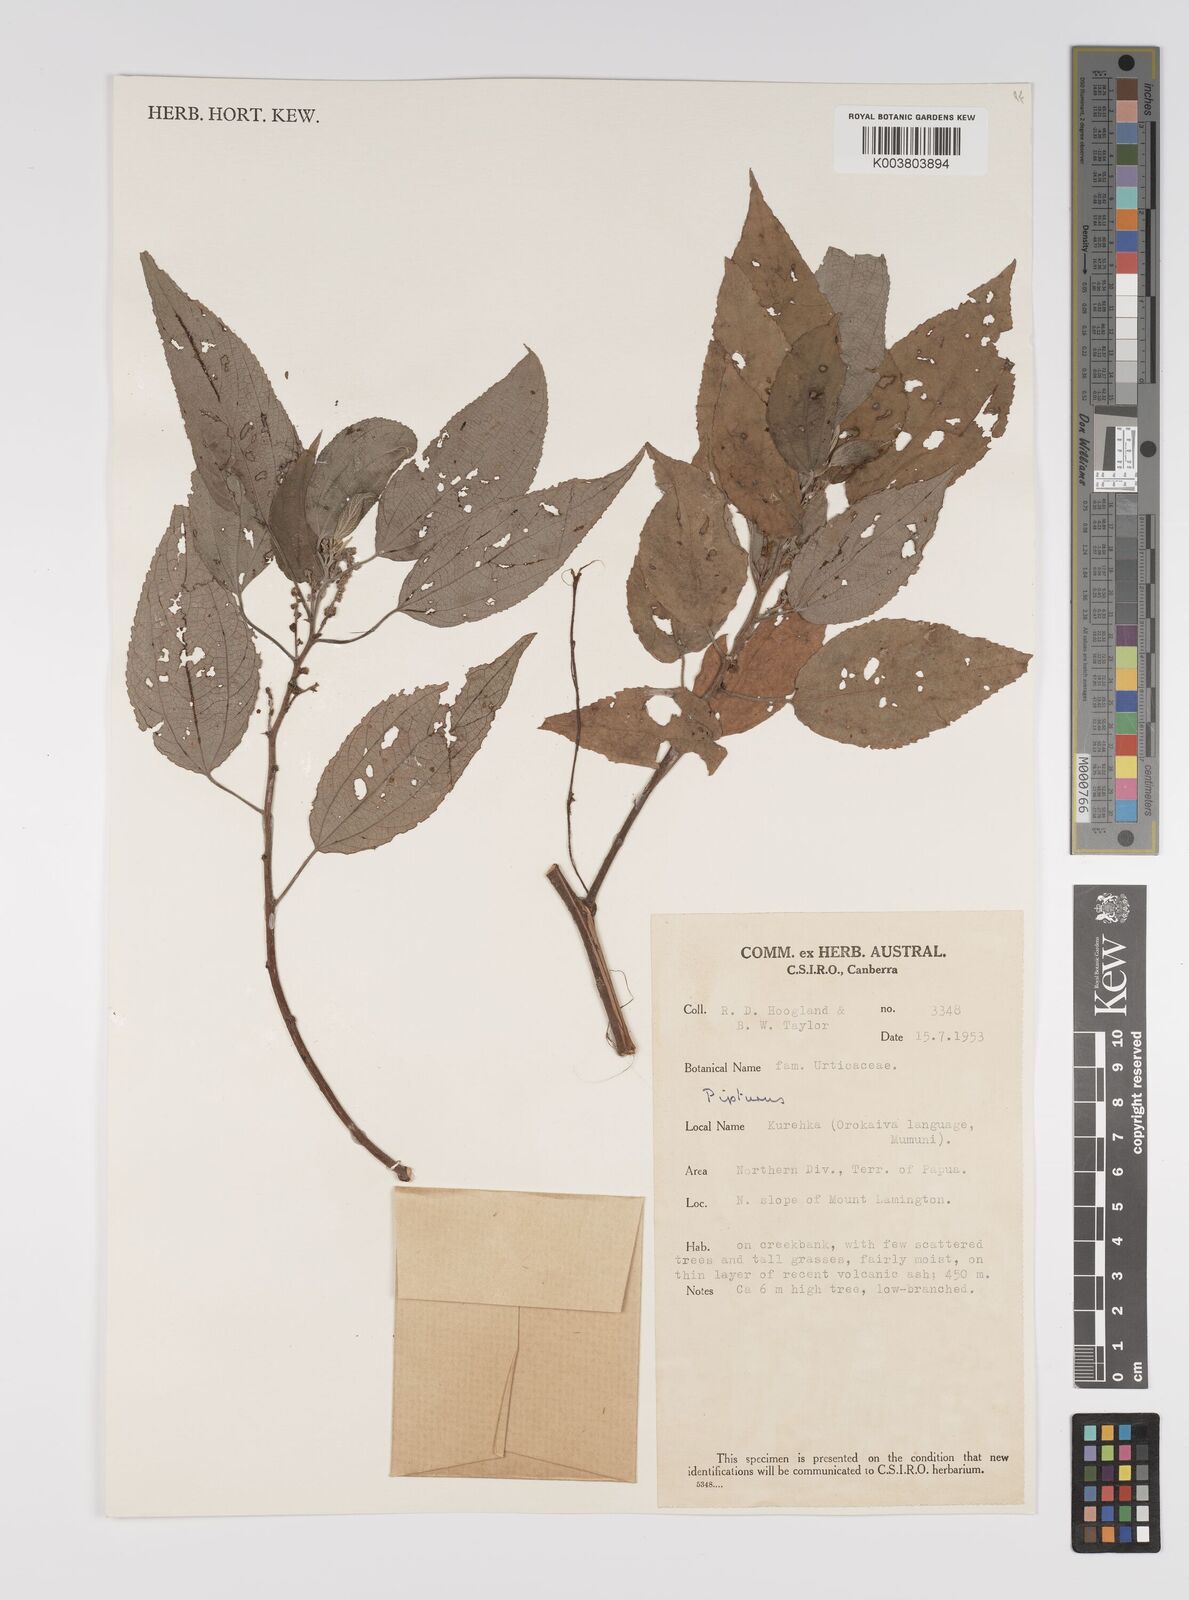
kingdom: Plantae
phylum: Tracheophyta
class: Magnoliopsida
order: Rosales
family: Urticaceae
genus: Pipturus
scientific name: Pipturus argenteus
